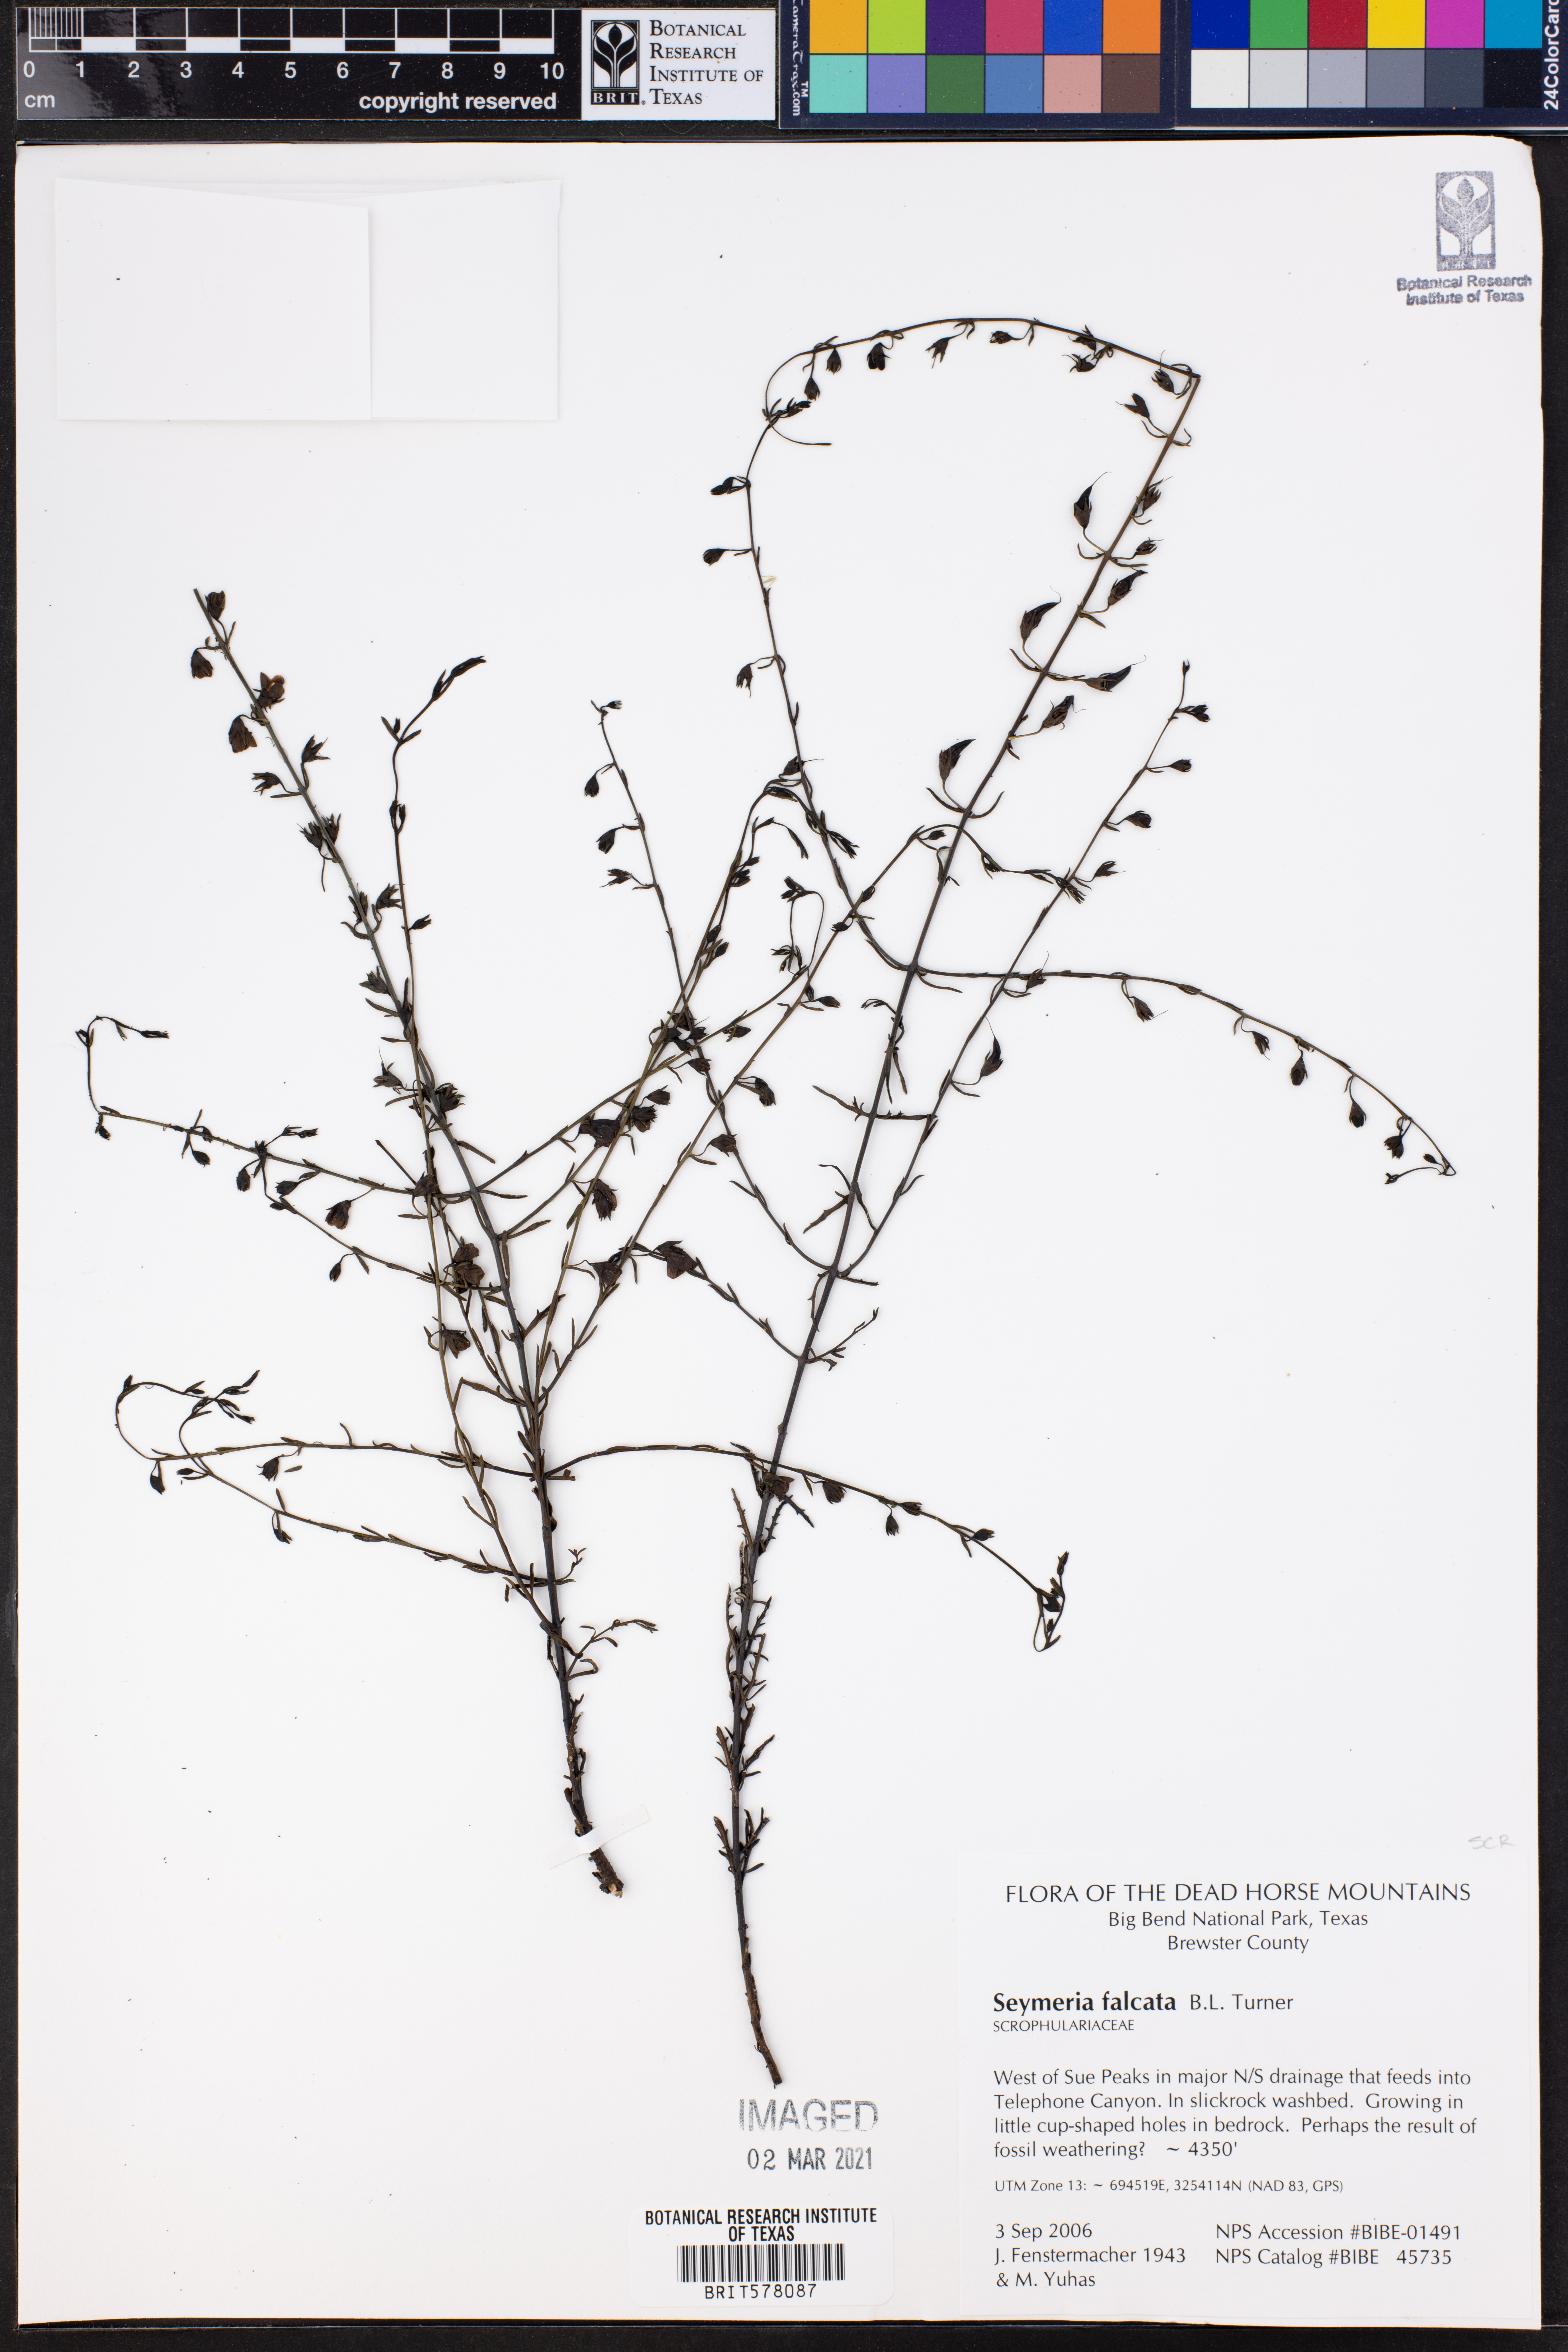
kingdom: Plantae
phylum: Tracheophyta
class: Magnoliopsida
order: Lamiales
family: Orobanchaceae
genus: Seymeria
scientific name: Seymeria falcata
